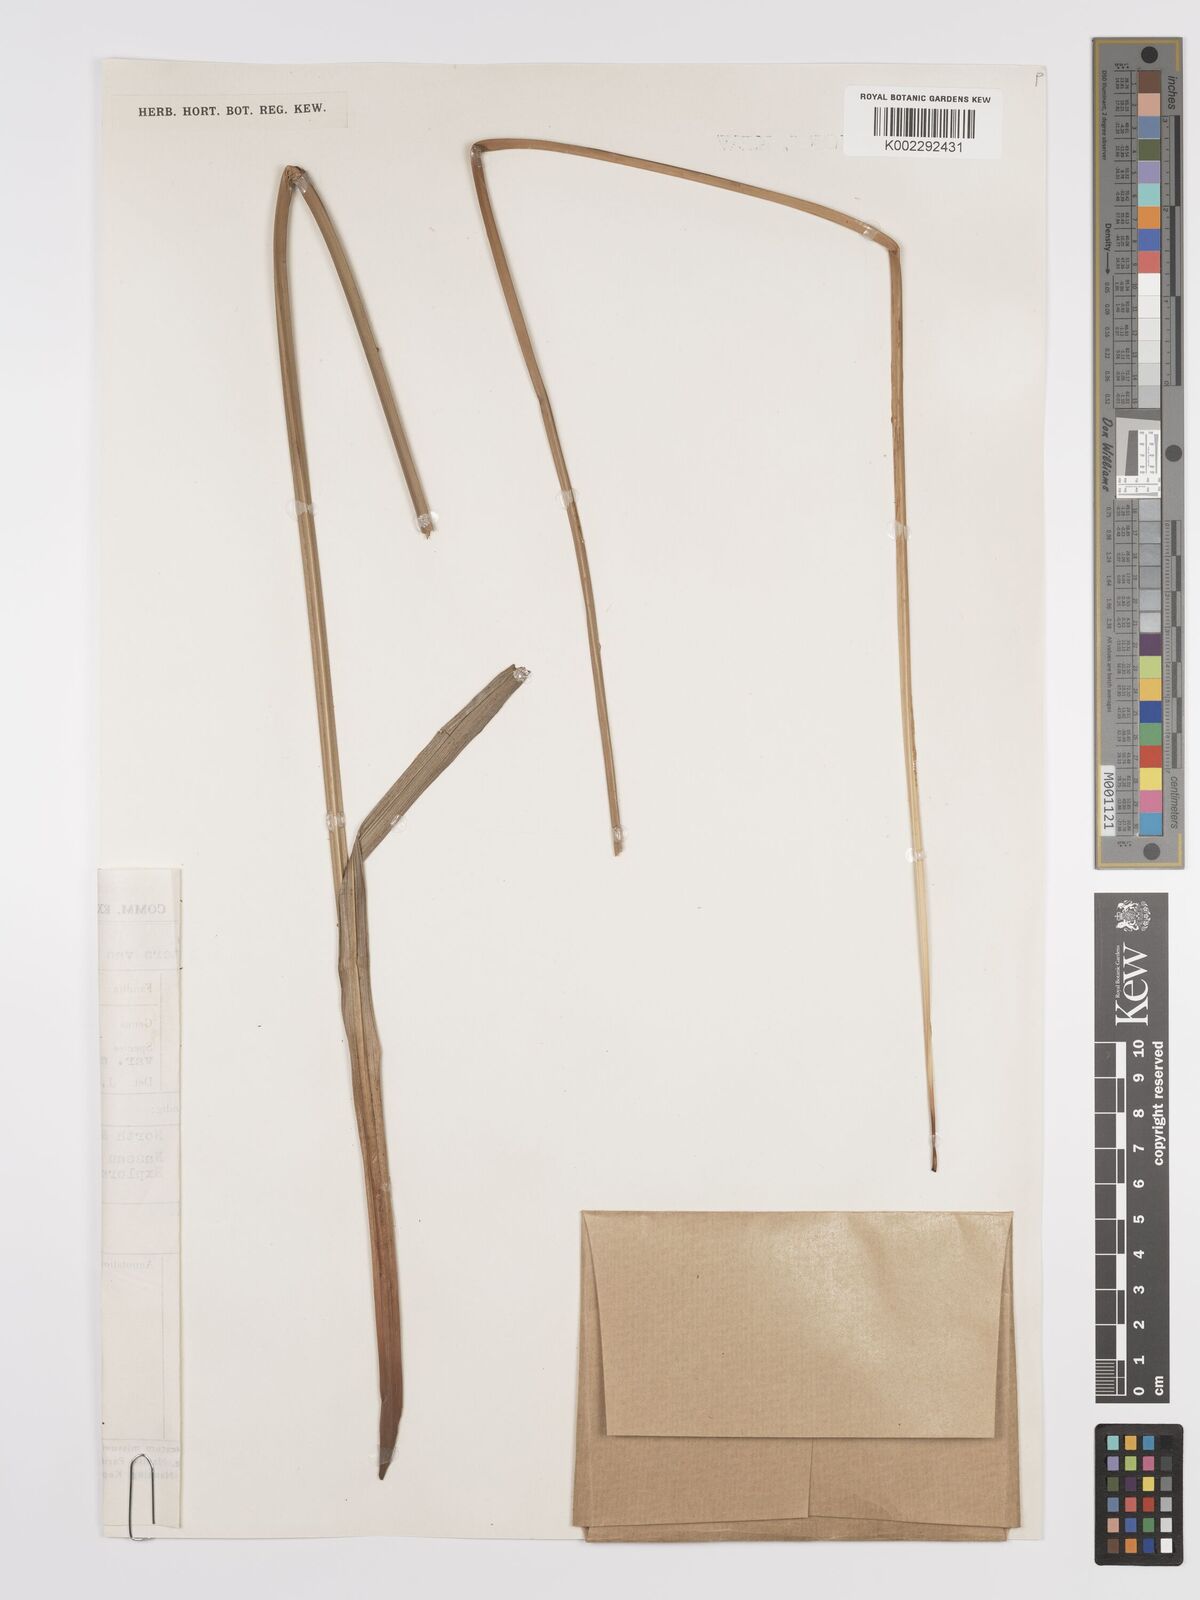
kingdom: Plantae
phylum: Tracheophyta
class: Liliopsida
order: Poales
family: Cyperaceae
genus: Cyperus
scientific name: Cyperus diffusus
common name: Dwarf umbrella grass
